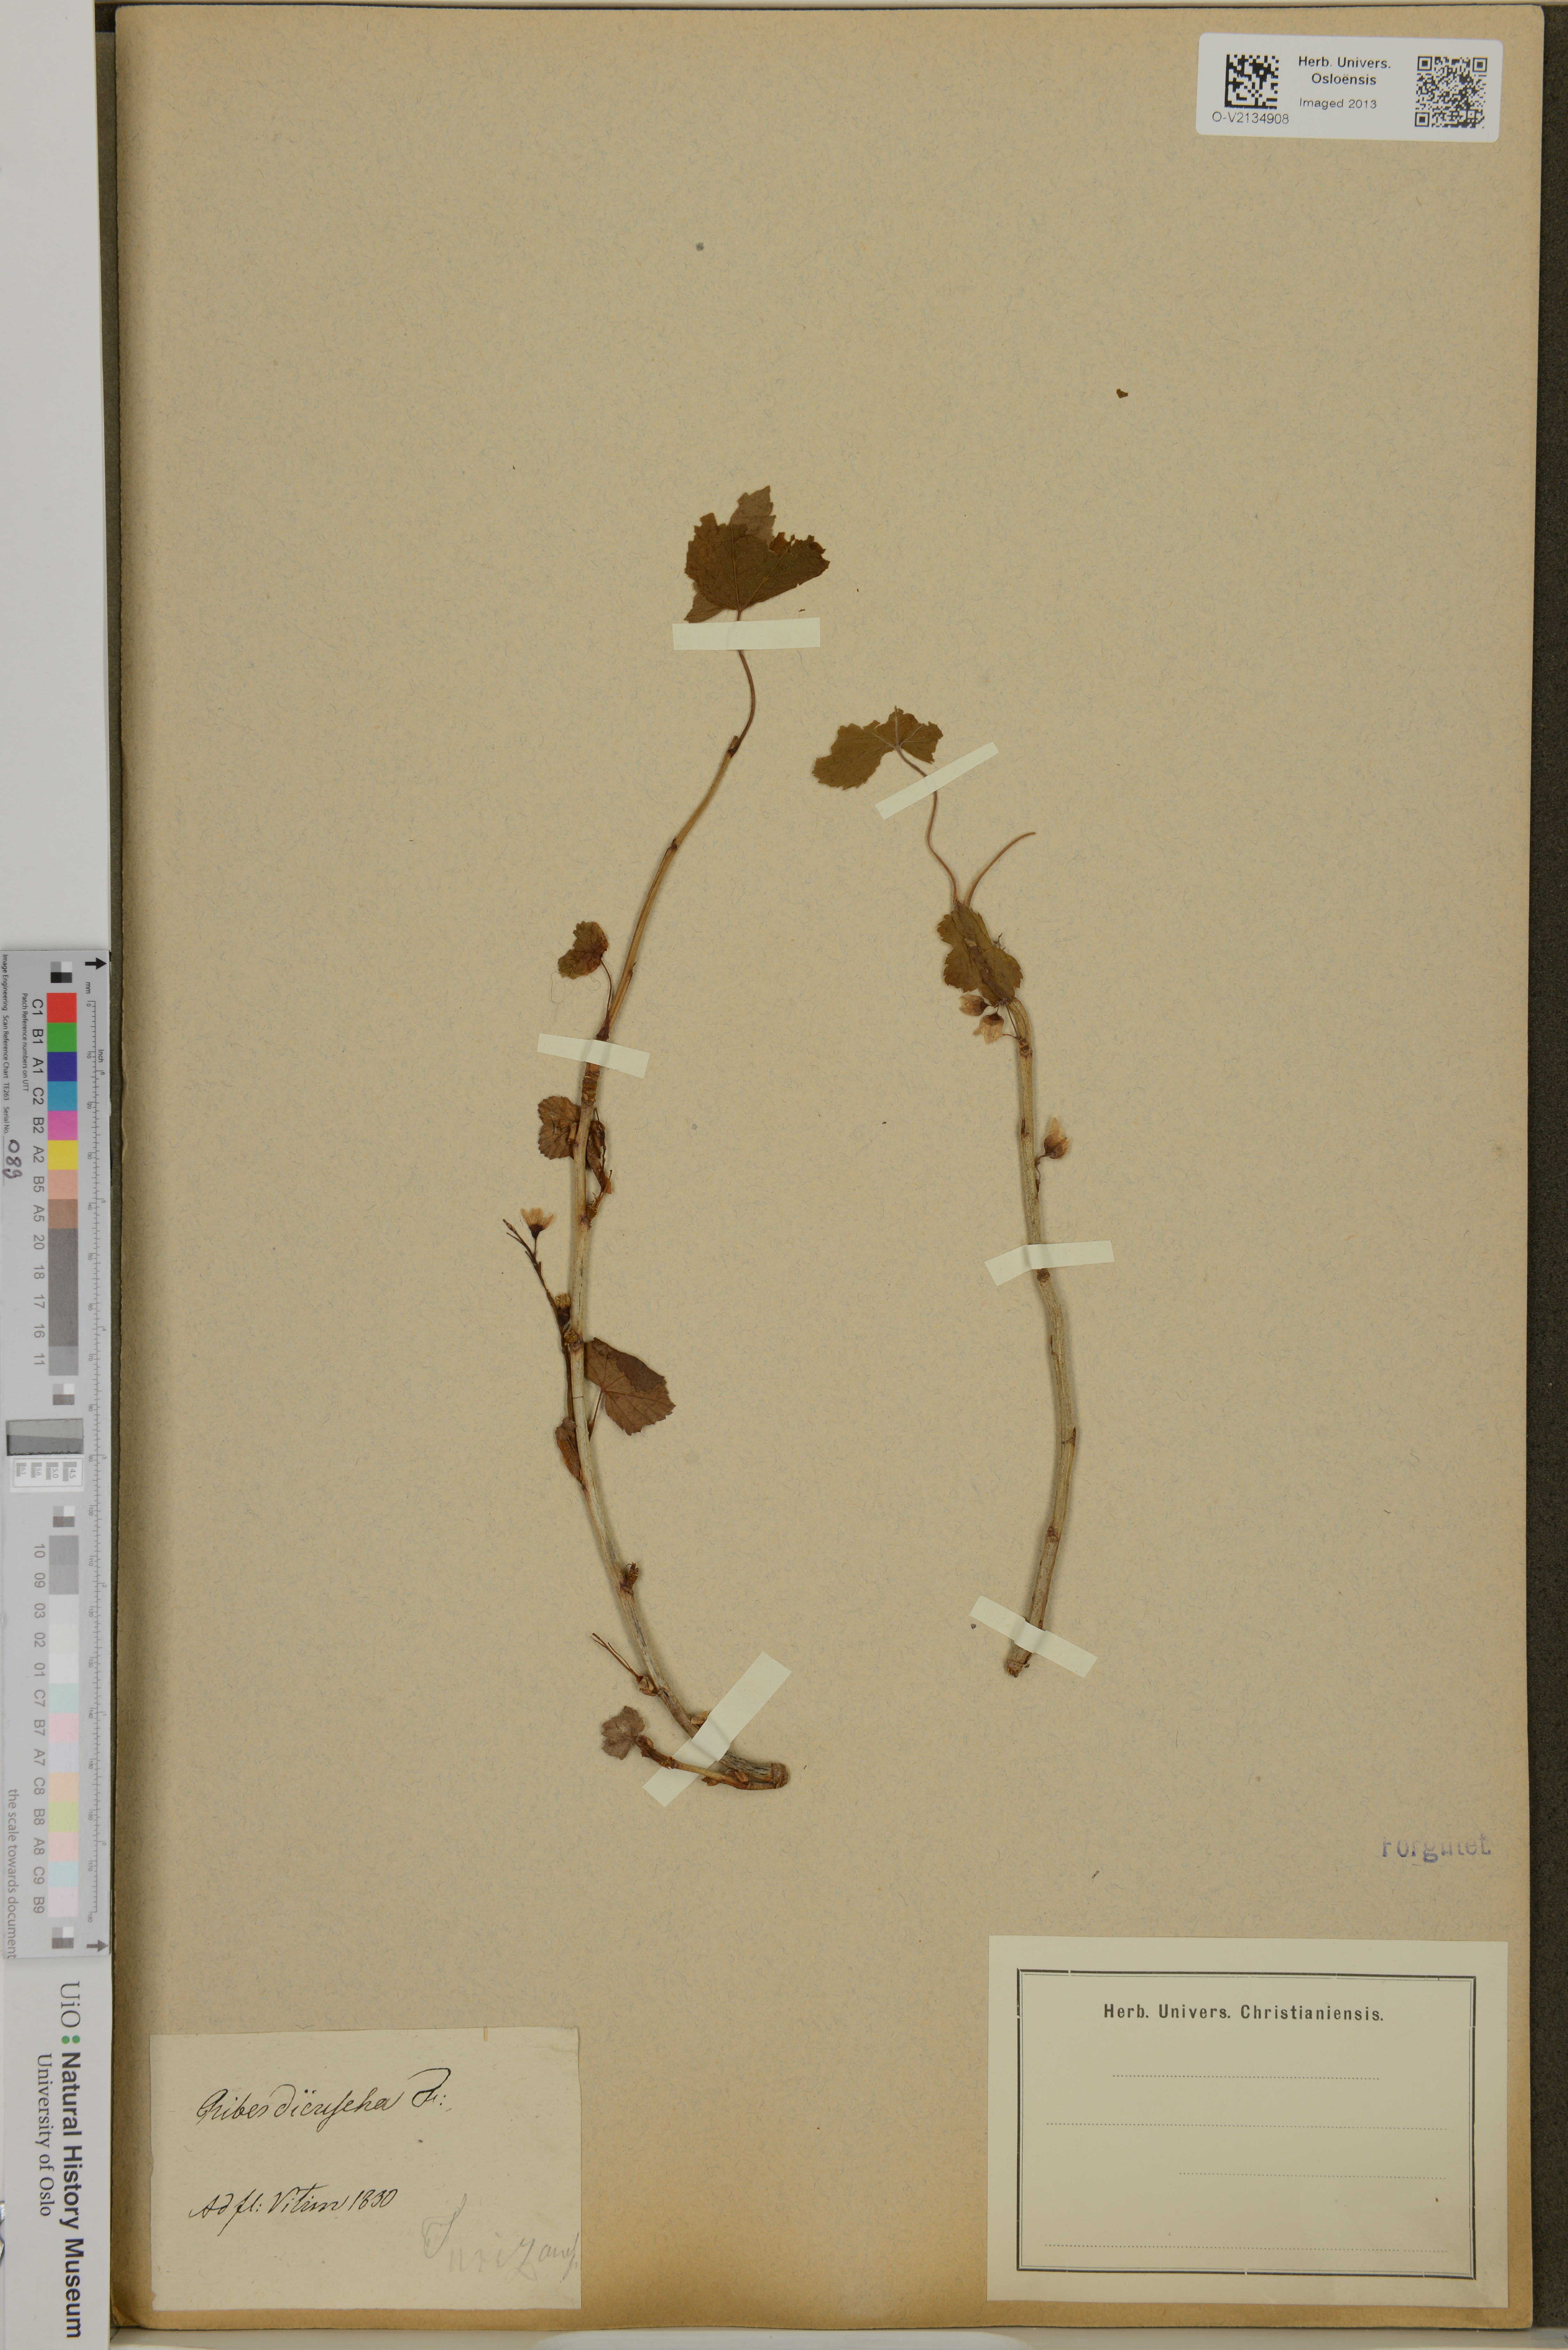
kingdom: Plantae
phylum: Tracheophyta
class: Magnoliopsida
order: Saxifragales
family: Grossulariaceae
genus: Ribes
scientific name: Ribes dikuscha
